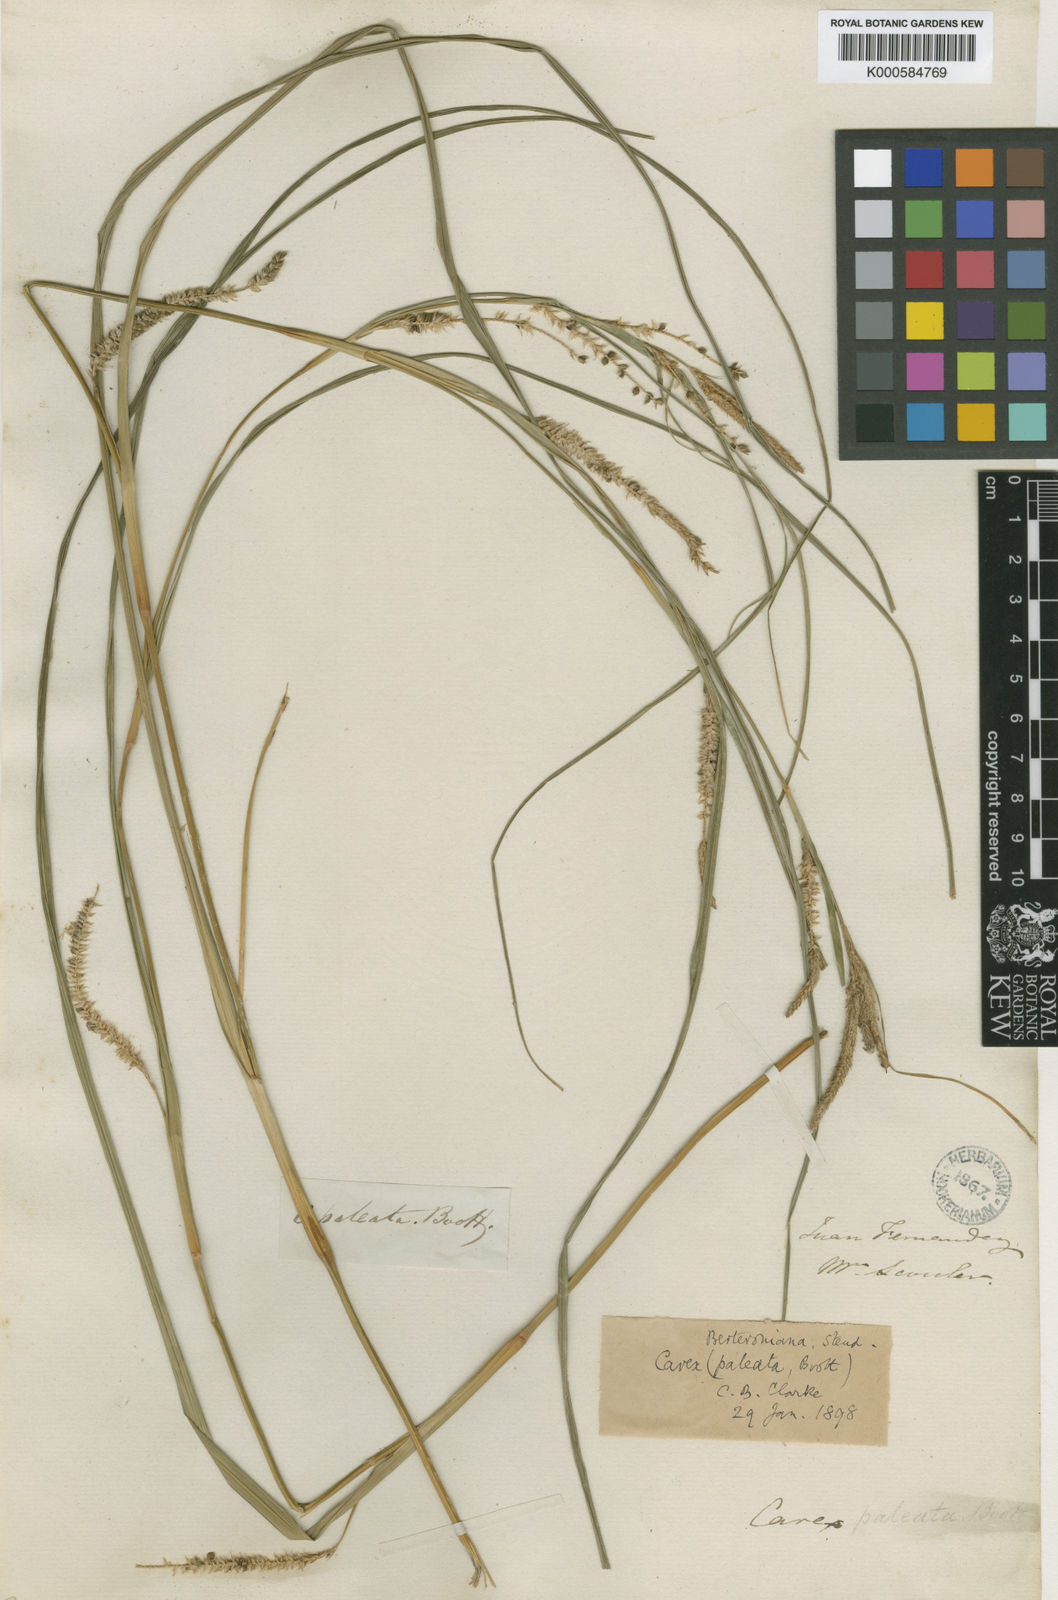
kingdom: Plantae
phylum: Tracheophyta
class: Liliopsida
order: Poales
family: Cyperaceae
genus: Carex
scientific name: Carex berteroniana
